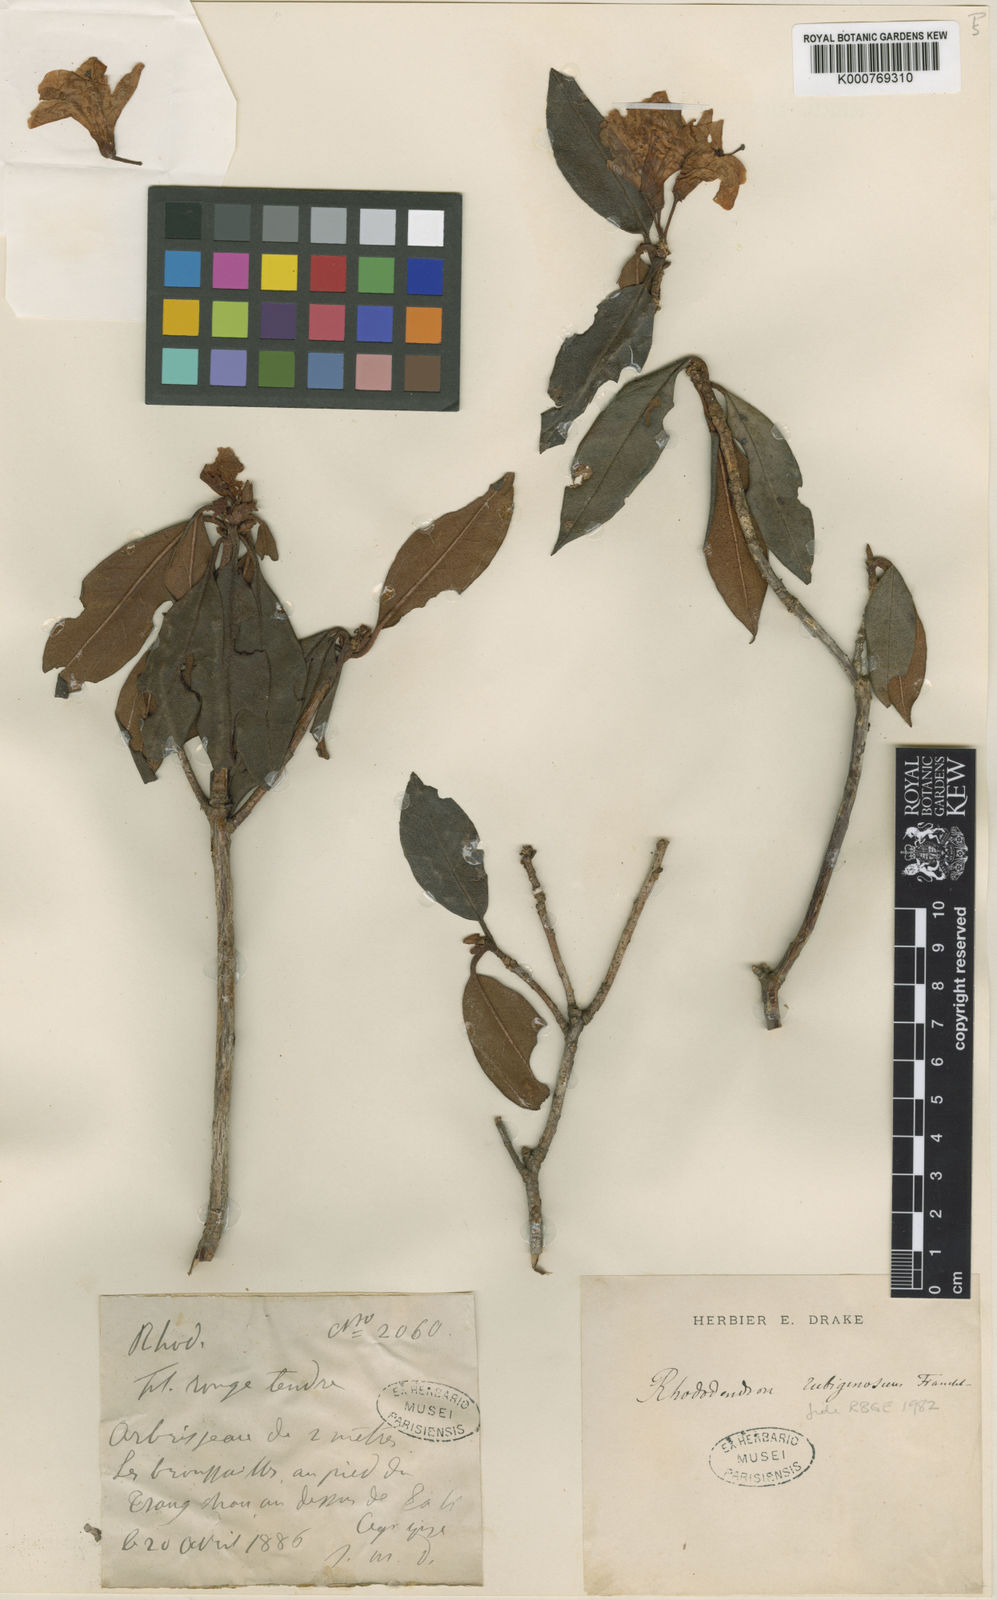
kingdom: Plantae
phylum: Tracheophyta
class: Magnoliopsida
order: Ericales
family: Ericaceae
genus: Rhododendron
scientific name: Rhododendron rubiginosum
